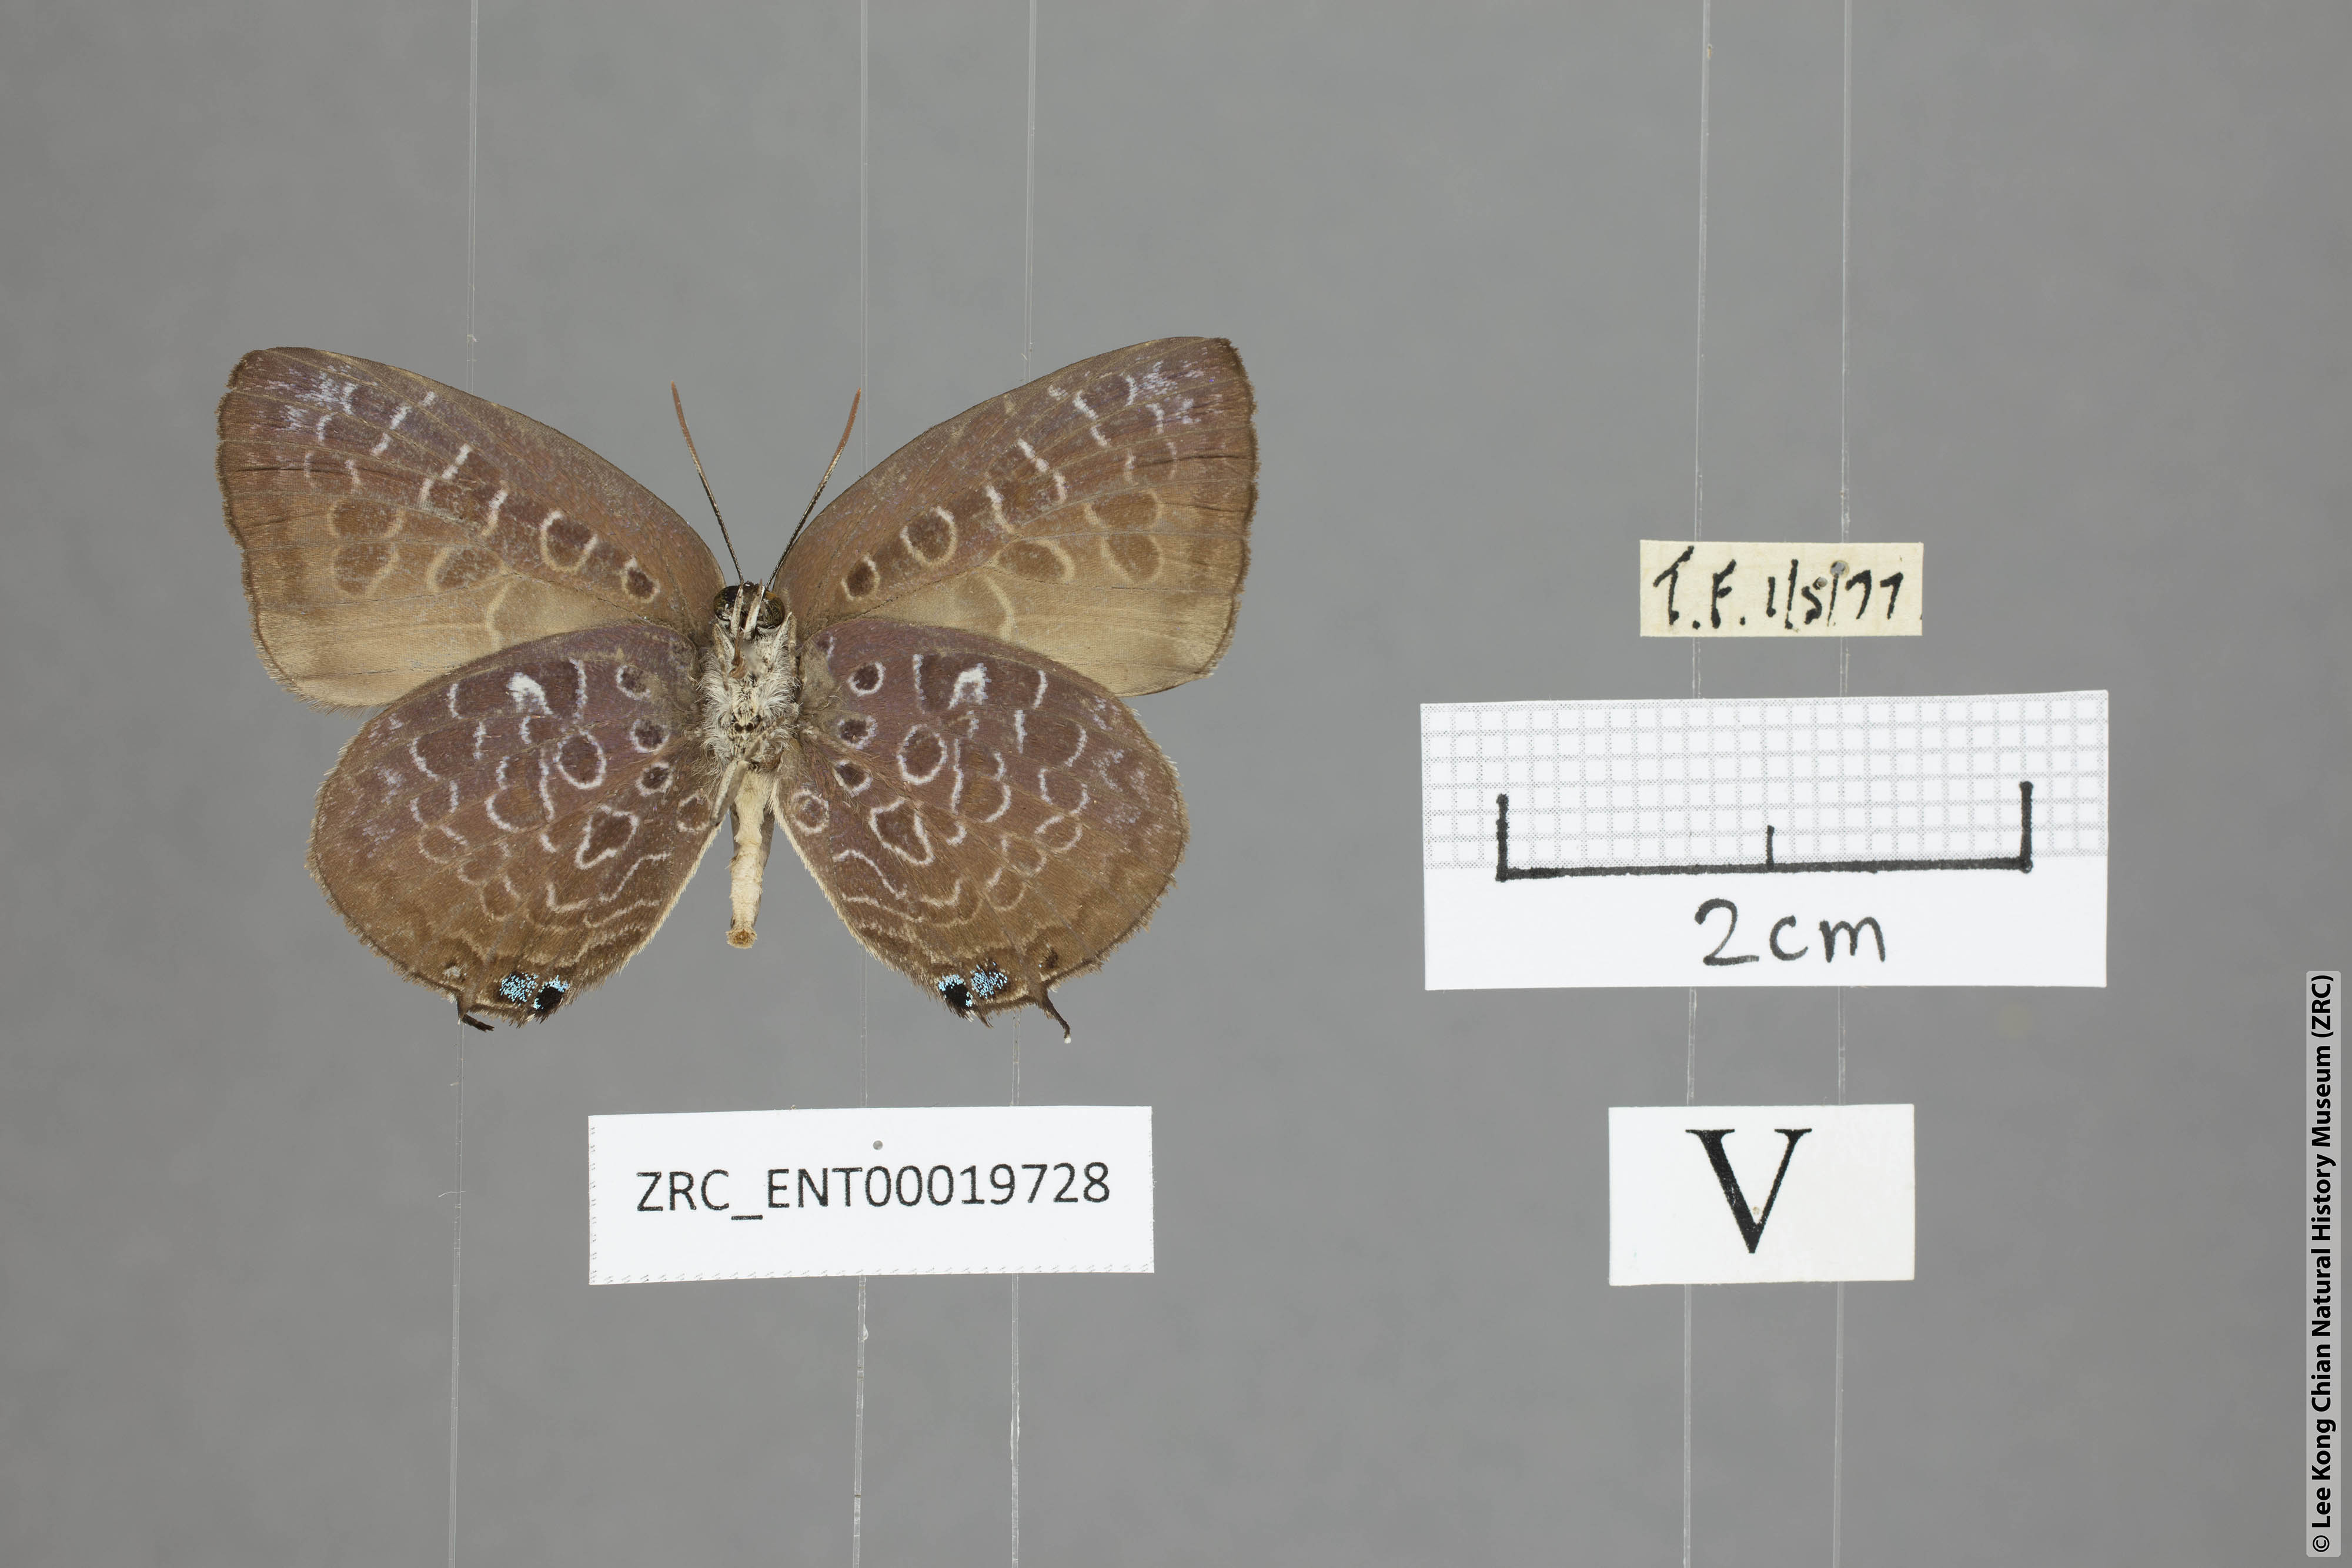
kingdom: Animalia
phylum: Arthropoda
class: Insecta
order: Lepidoptera
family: Lycaenidae
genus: Arhopala
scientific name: Arhopala myrzala
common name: Malayan oakblue
